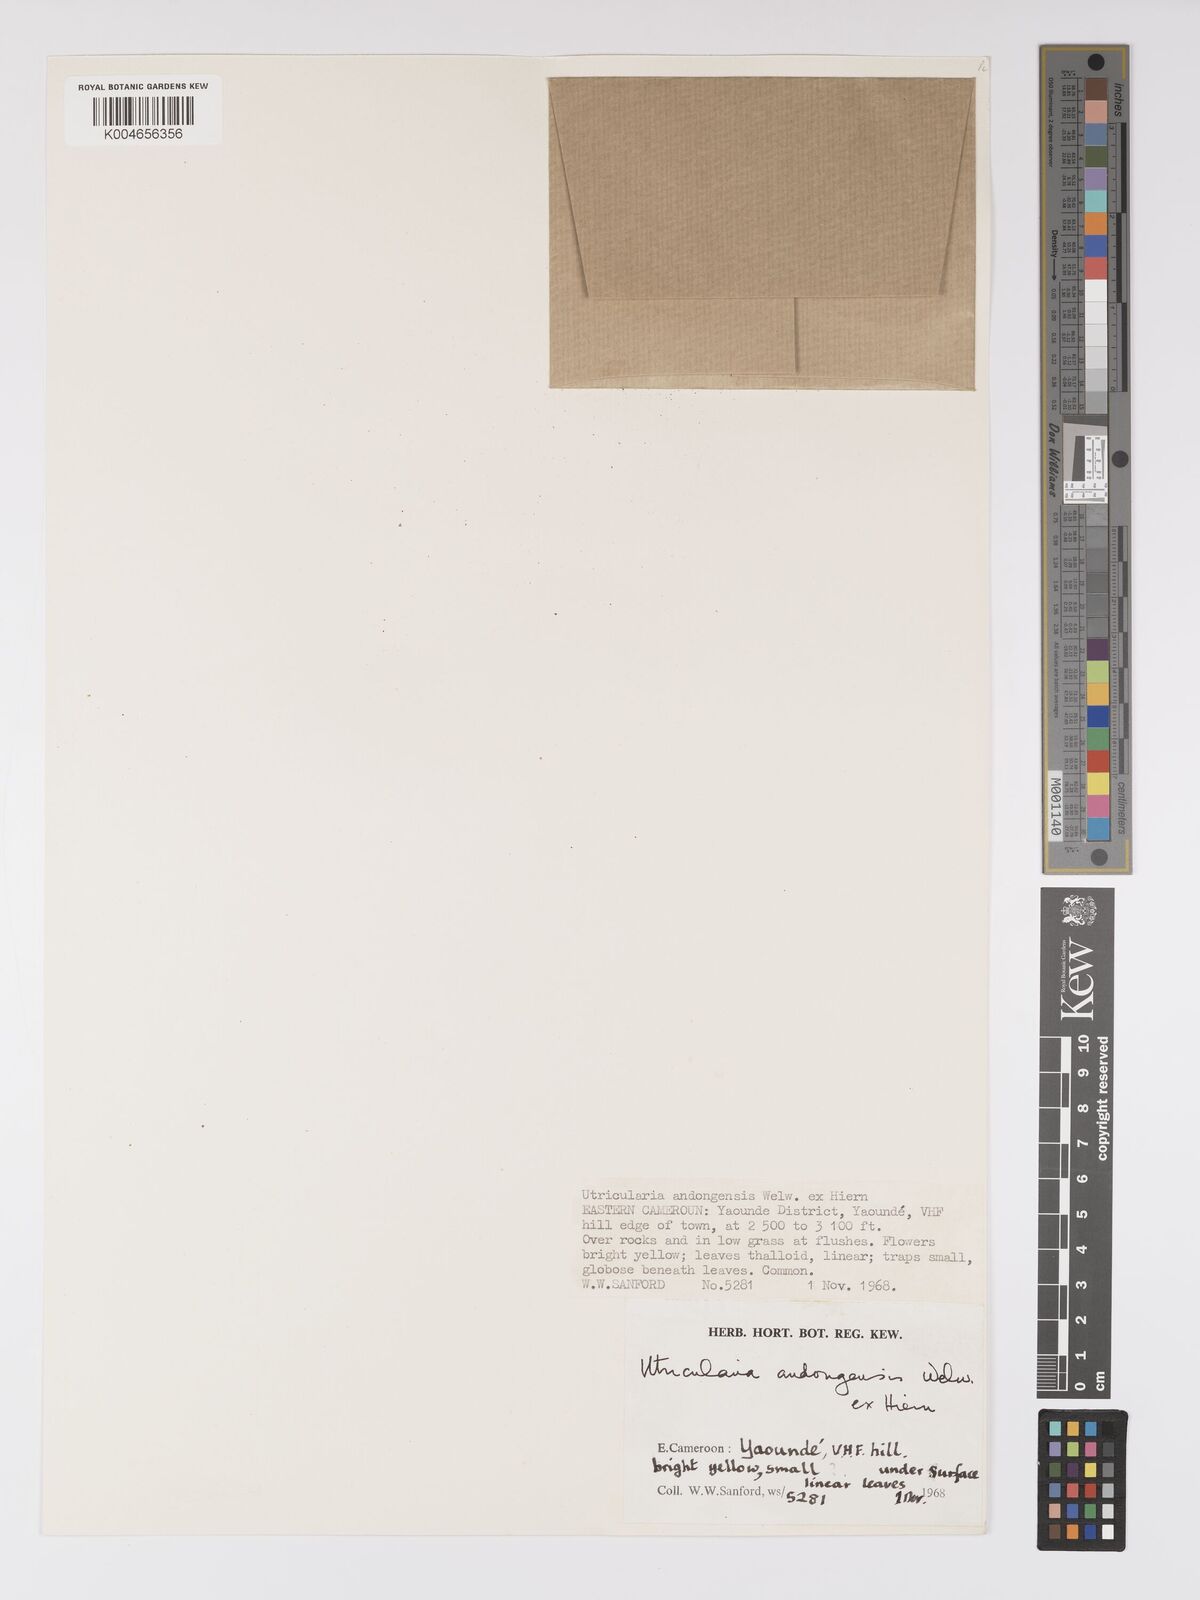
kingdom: Plantae
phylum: Tracheophyta
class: Magnoliopsida
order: Lamiales
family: Lentibulariaceae
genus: Utricularia
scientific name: Utricularia andongensis
